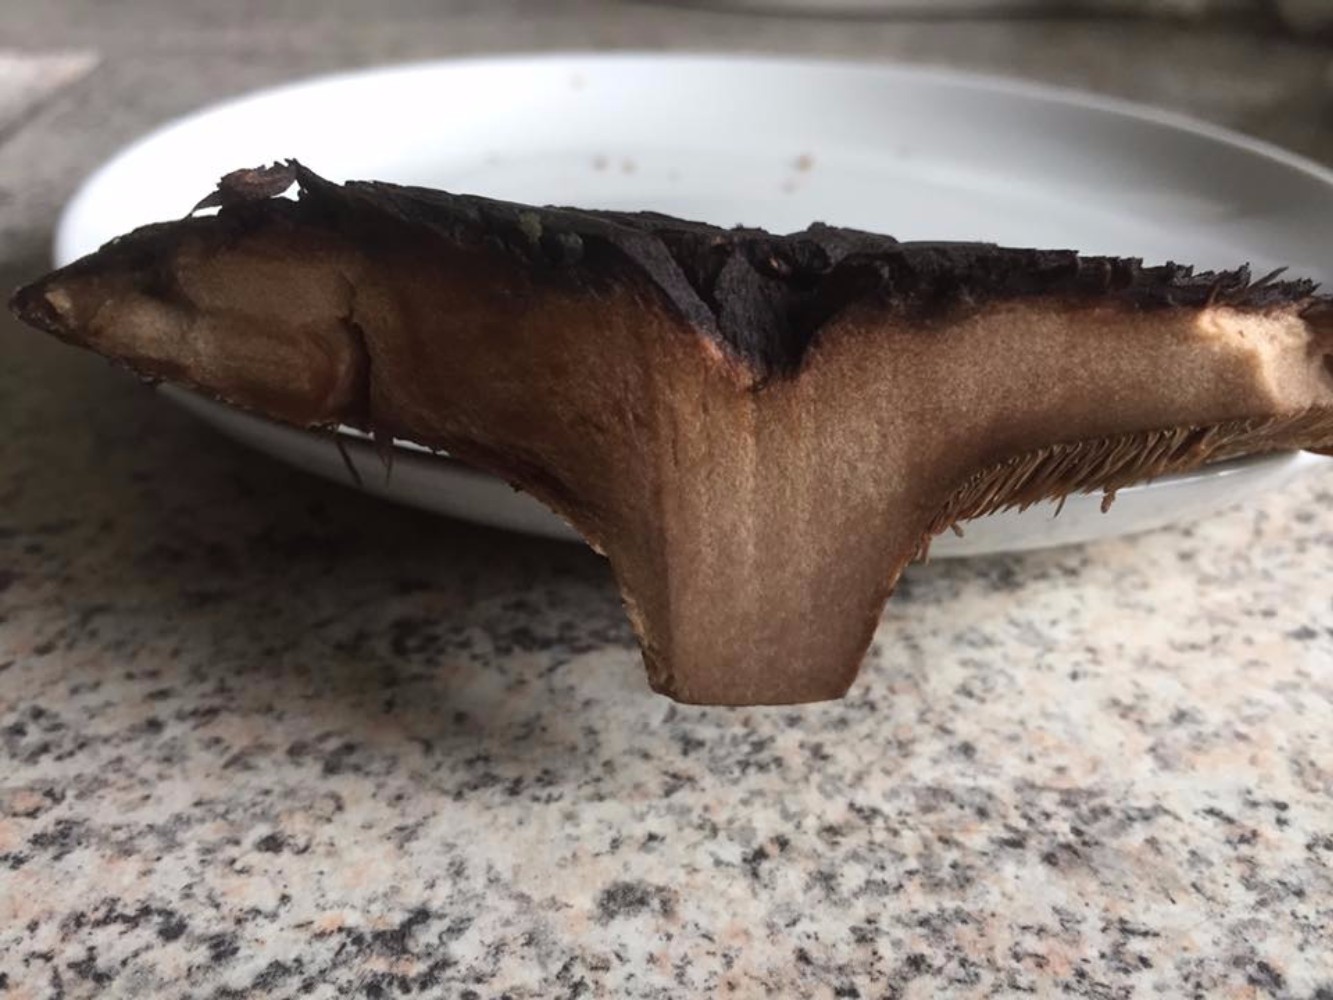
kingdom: Fungi
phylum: Basidiomycota
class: Agaricomycetes
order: Thelephorales
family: Bankeraceae
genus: Sarcodon
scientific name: Sarcodon imbricatus
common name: skællet kødpigsvamp
